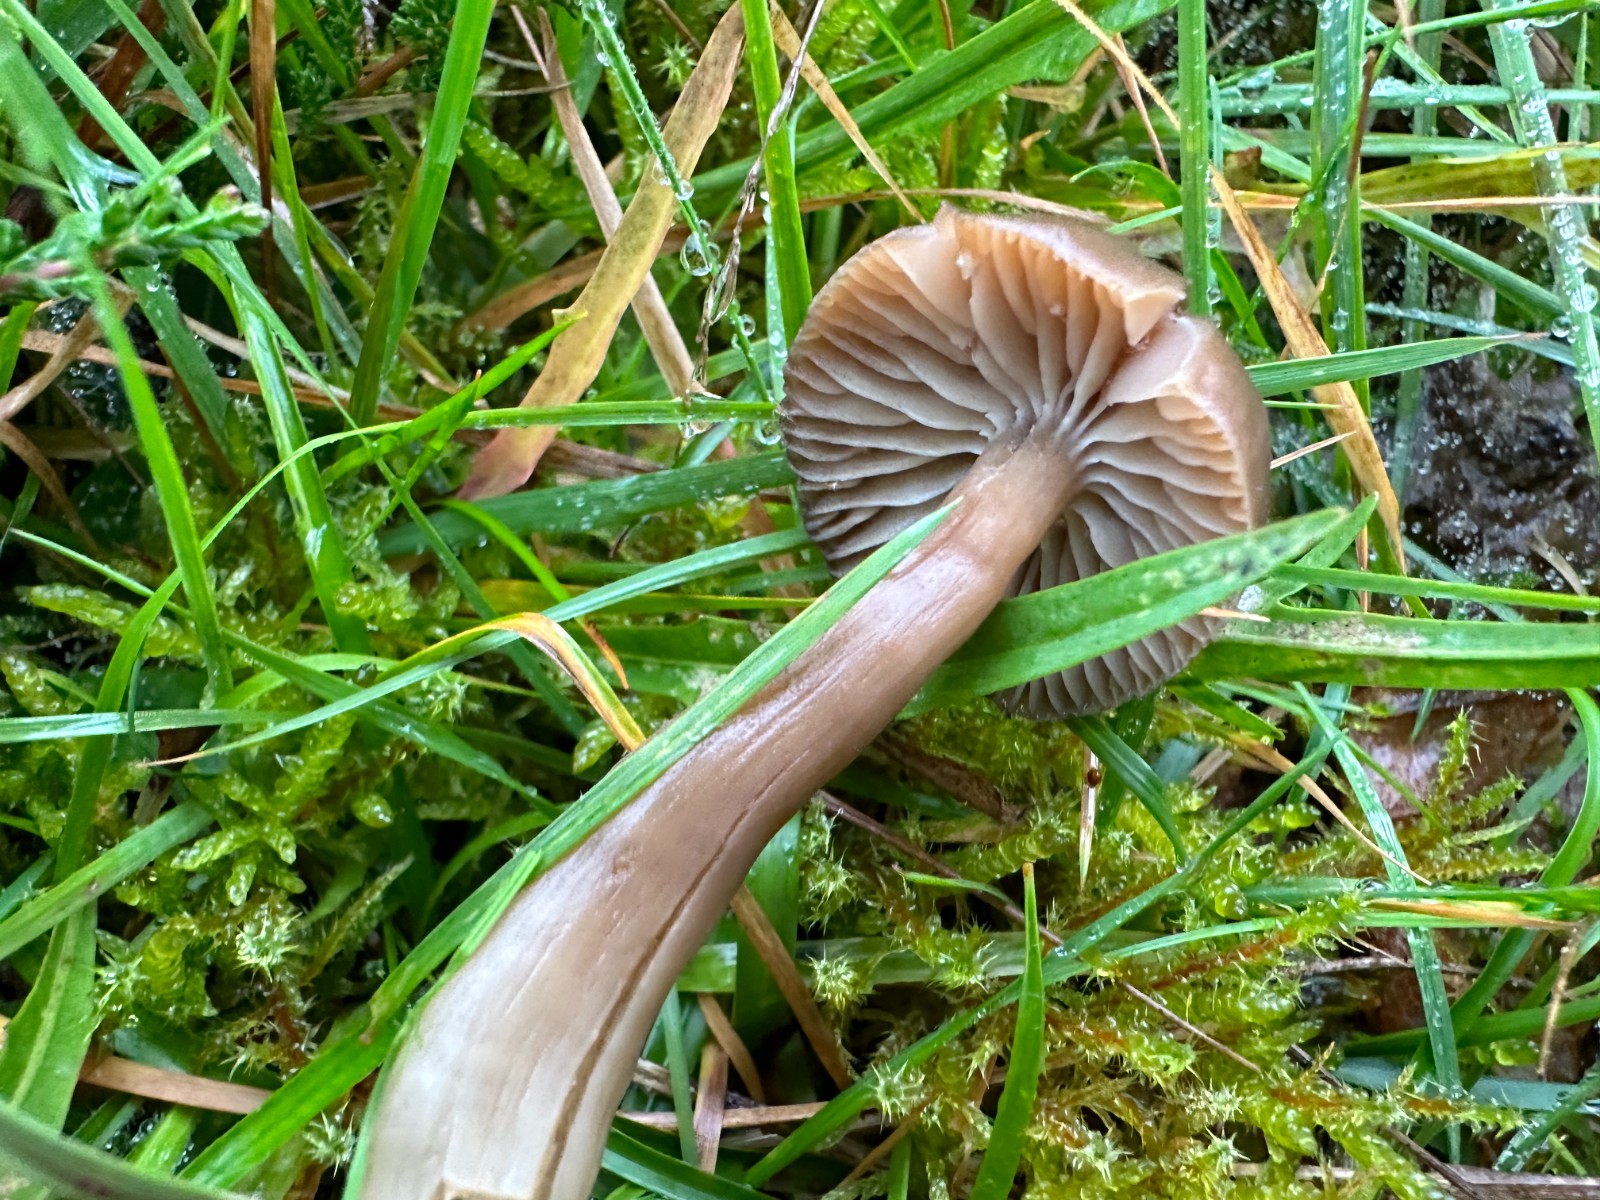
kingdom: Fungi
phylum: Basidiomycota
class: Agaricomycetes
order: Agaricales
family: Hygrophoraceae
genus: Neohygrocybe
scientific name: Neohygrocybe nitrata
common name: stinkende vokshat
